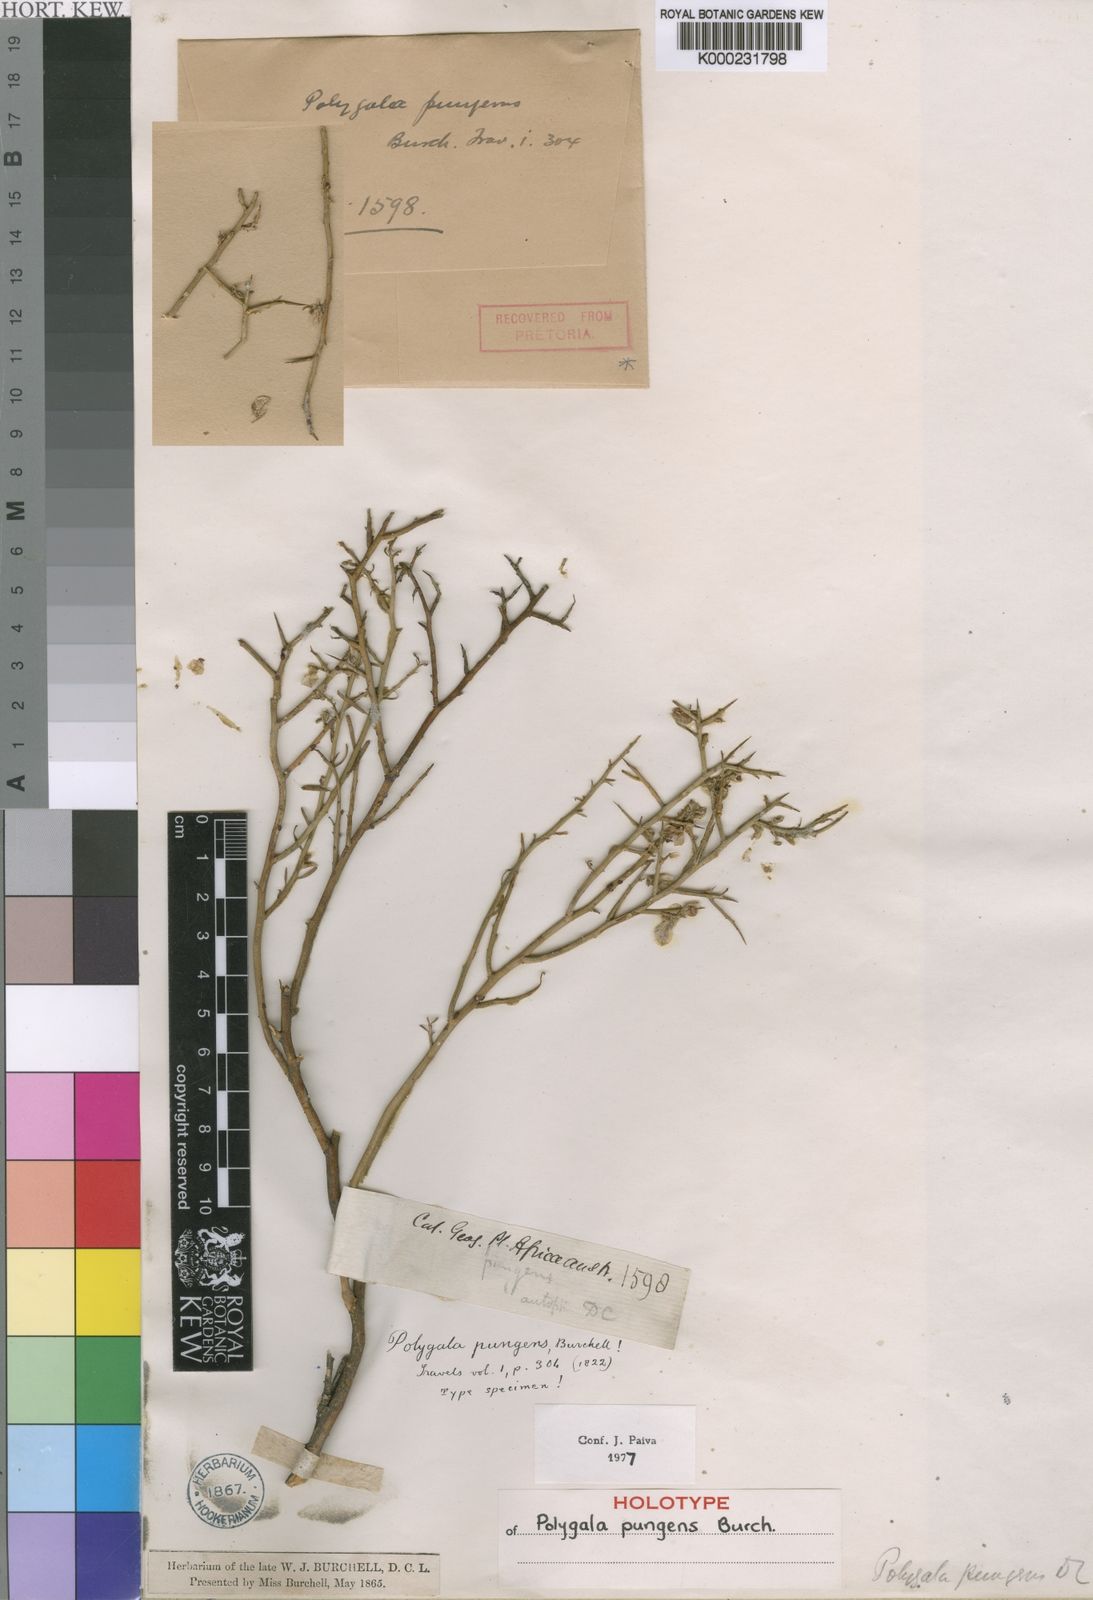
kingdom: Plantae
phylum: Tracheophyta
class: Magnoliopsida
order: Fabales
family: Polygalaceae
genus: Polygala
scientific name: Polygala pungens
